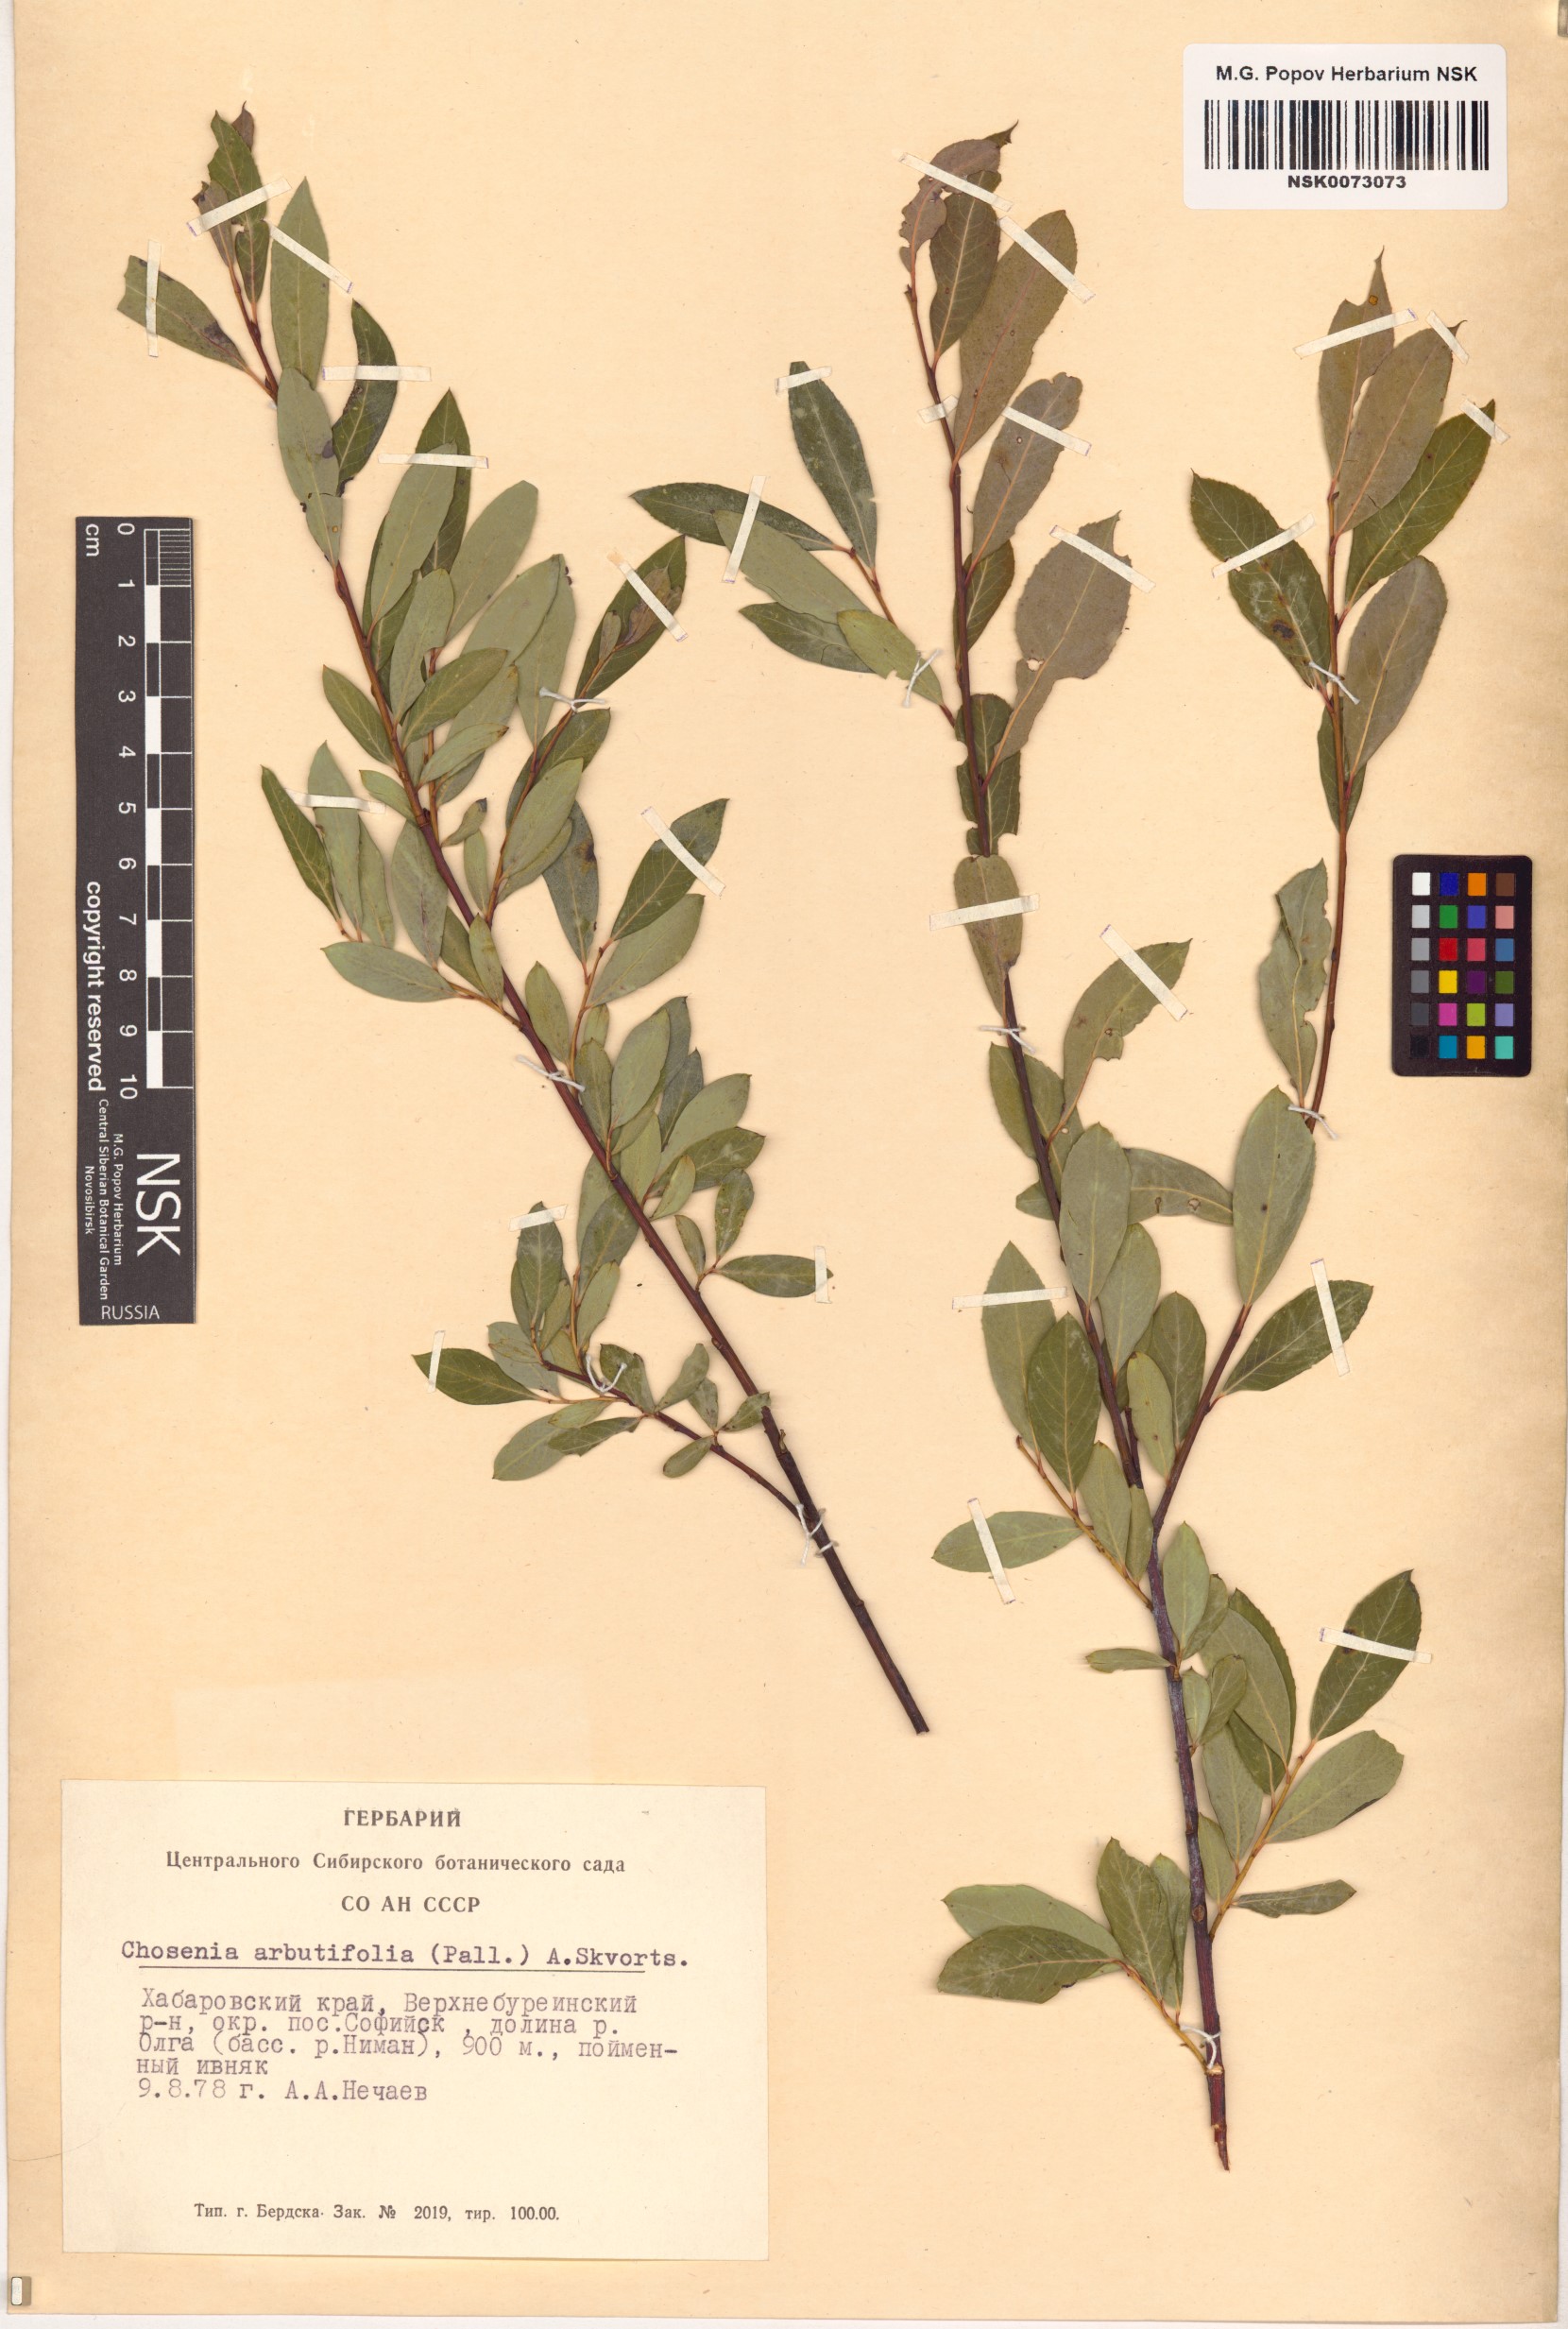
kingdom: Plantae
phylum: Tracheophyta
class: Magnoliopsida
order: Malpighiales
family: Salicaceae
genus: Chosenia
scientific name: Chosenia arbutifolia
